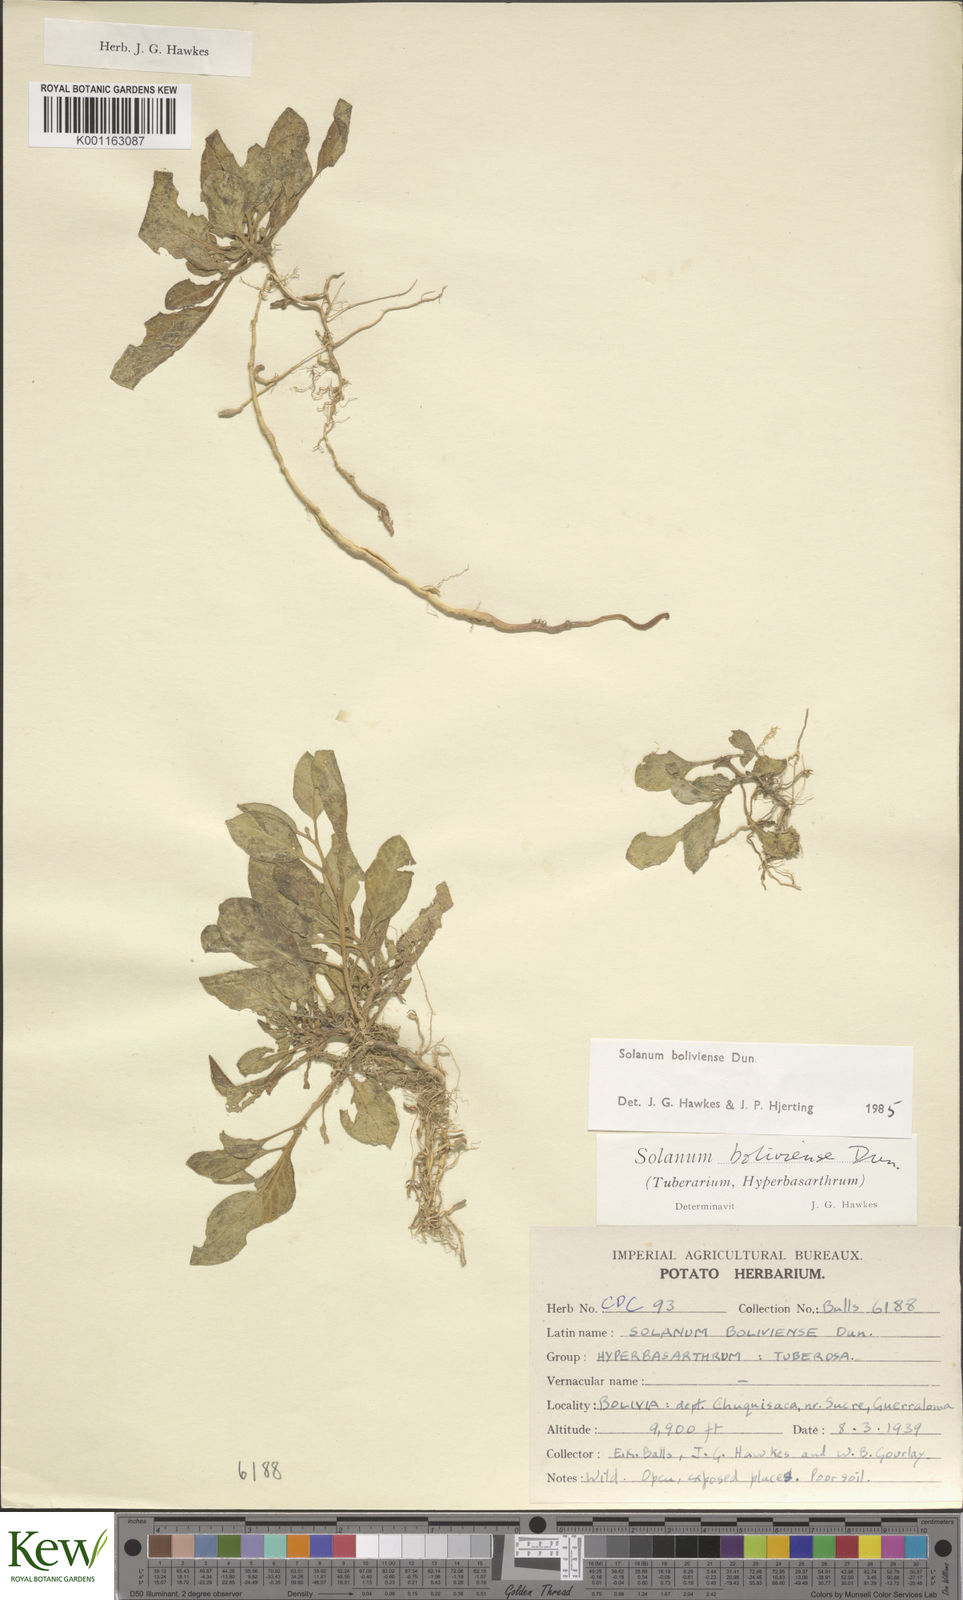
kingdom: Plantae
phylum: Tracheophyta
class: Magnoliopsida
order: Solanales
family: Solanaceae
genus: Solanum
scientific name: Solanum boliviense
